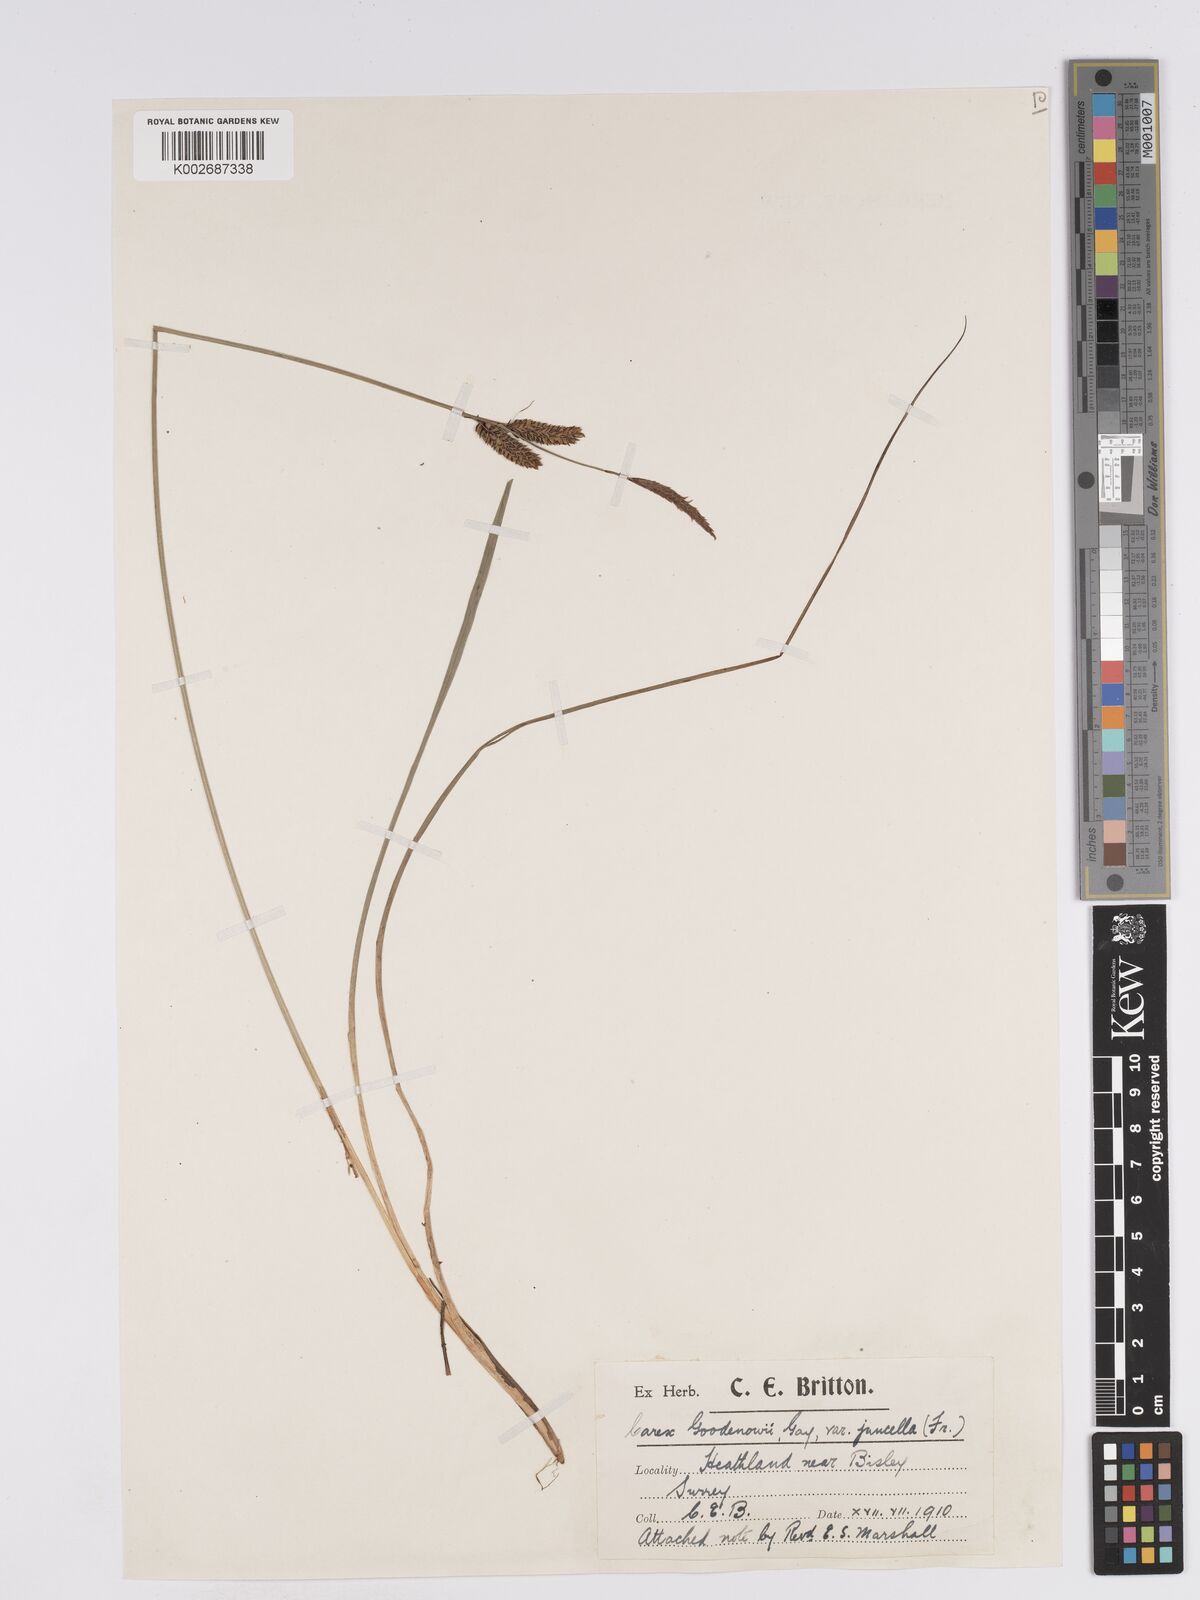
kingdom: Plantae
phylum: Tracheophyta
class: Liliopsida
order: Poales
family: Cyperaceae
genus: Carex
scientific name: Carex nigra
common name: Common sedge
